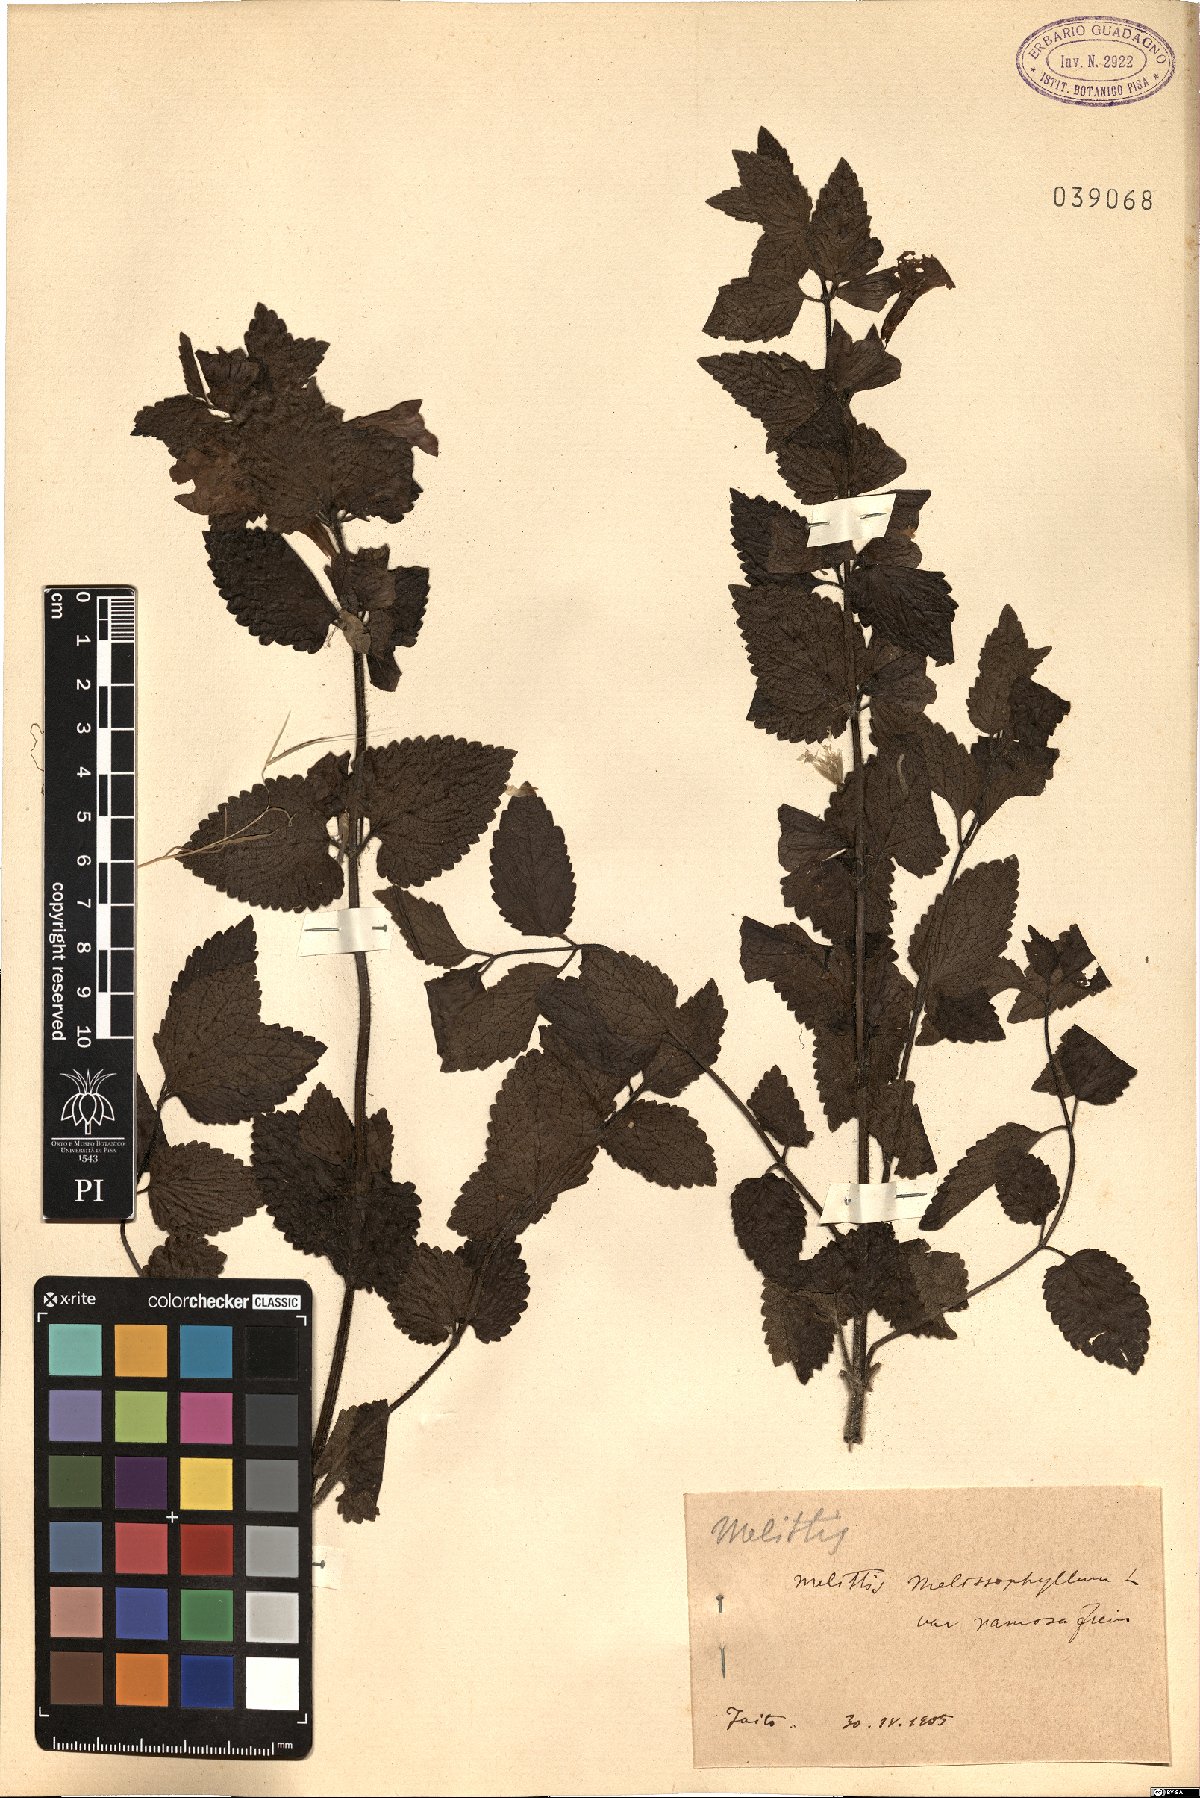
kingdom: Plantae
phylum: Tracheophyta
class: Magnoliopsida
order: Lamiales
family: Lamiaceae
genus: Melittis
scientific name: Melittis melissophyllum
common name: Bastard balm
